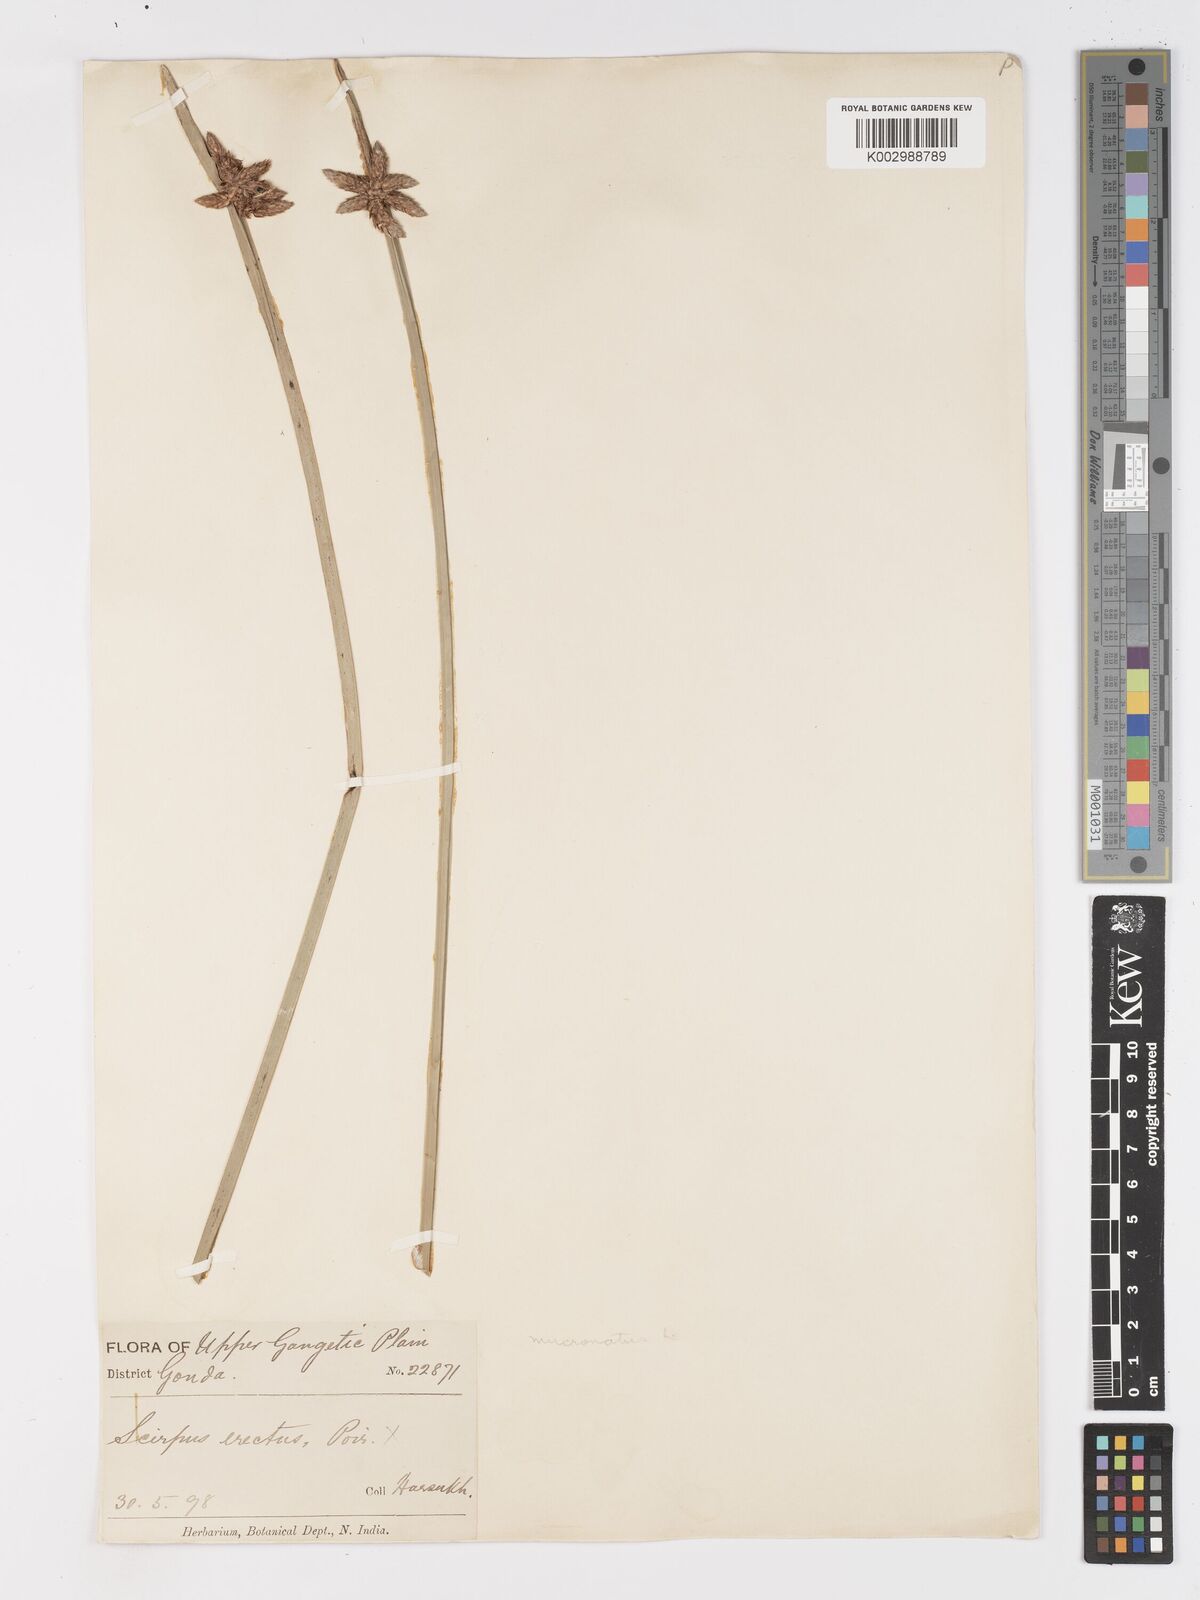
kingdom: Plantae
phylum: Tracheophyta
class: Liliopsida
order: Poales
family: Cyperaceae
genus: Schoenoplectiella
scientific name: Schoenoplectiella mucronata
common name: Bog bulrush
